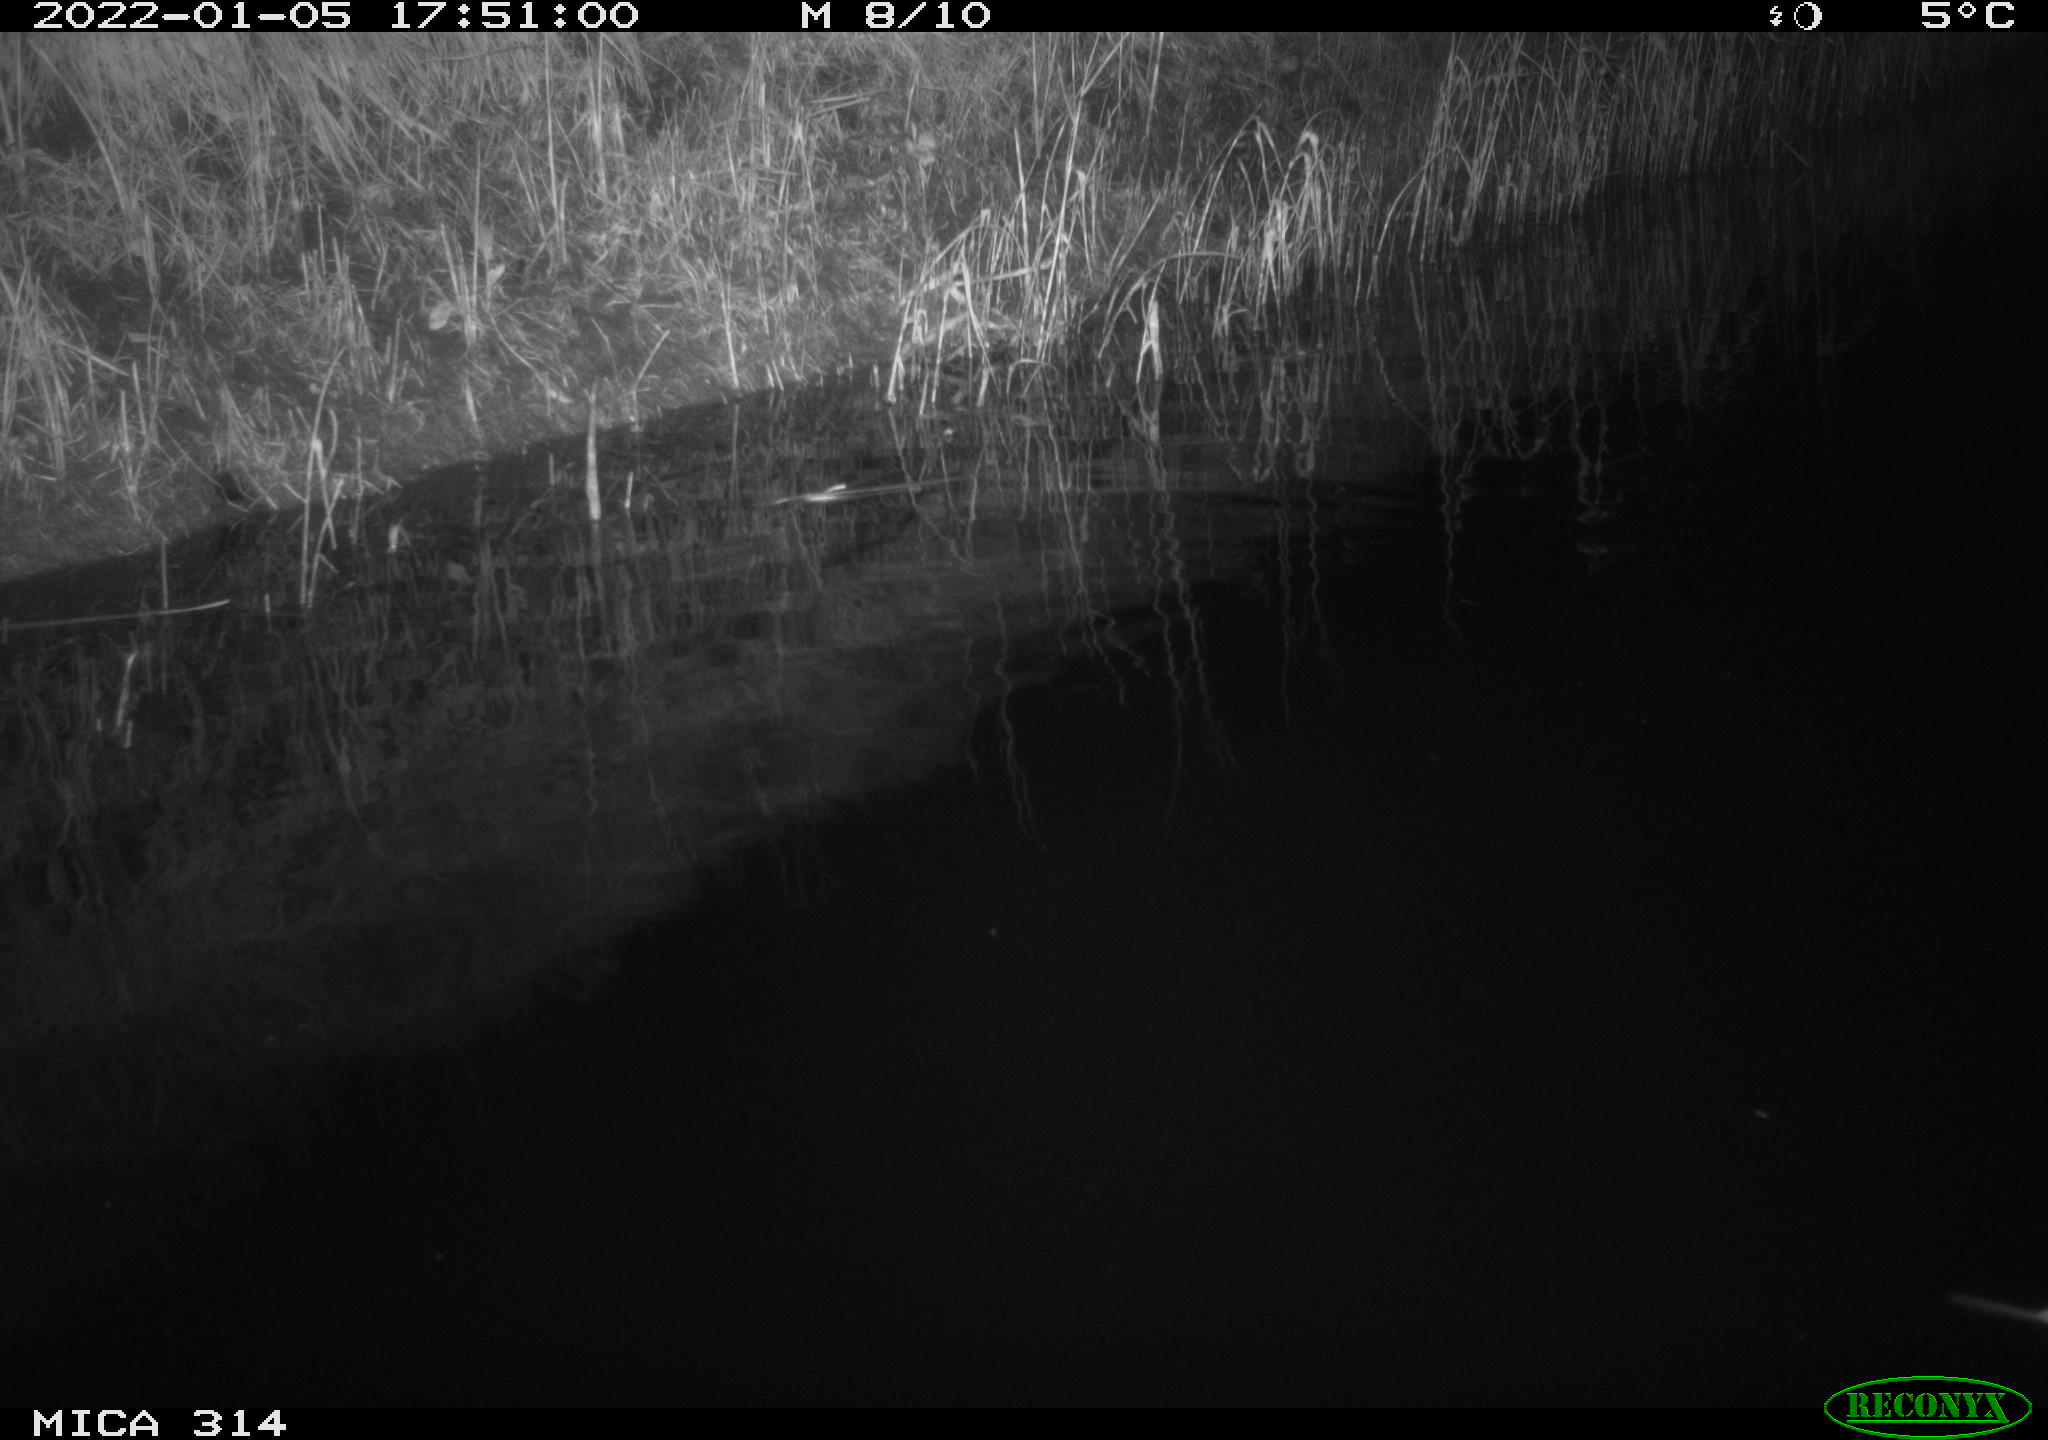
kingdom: Animalia
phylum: Chordata
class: Aves
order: Gruiformes
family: Rallidae
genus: Gallinula
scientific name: Gallinula chloropus
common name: Common moorhen
